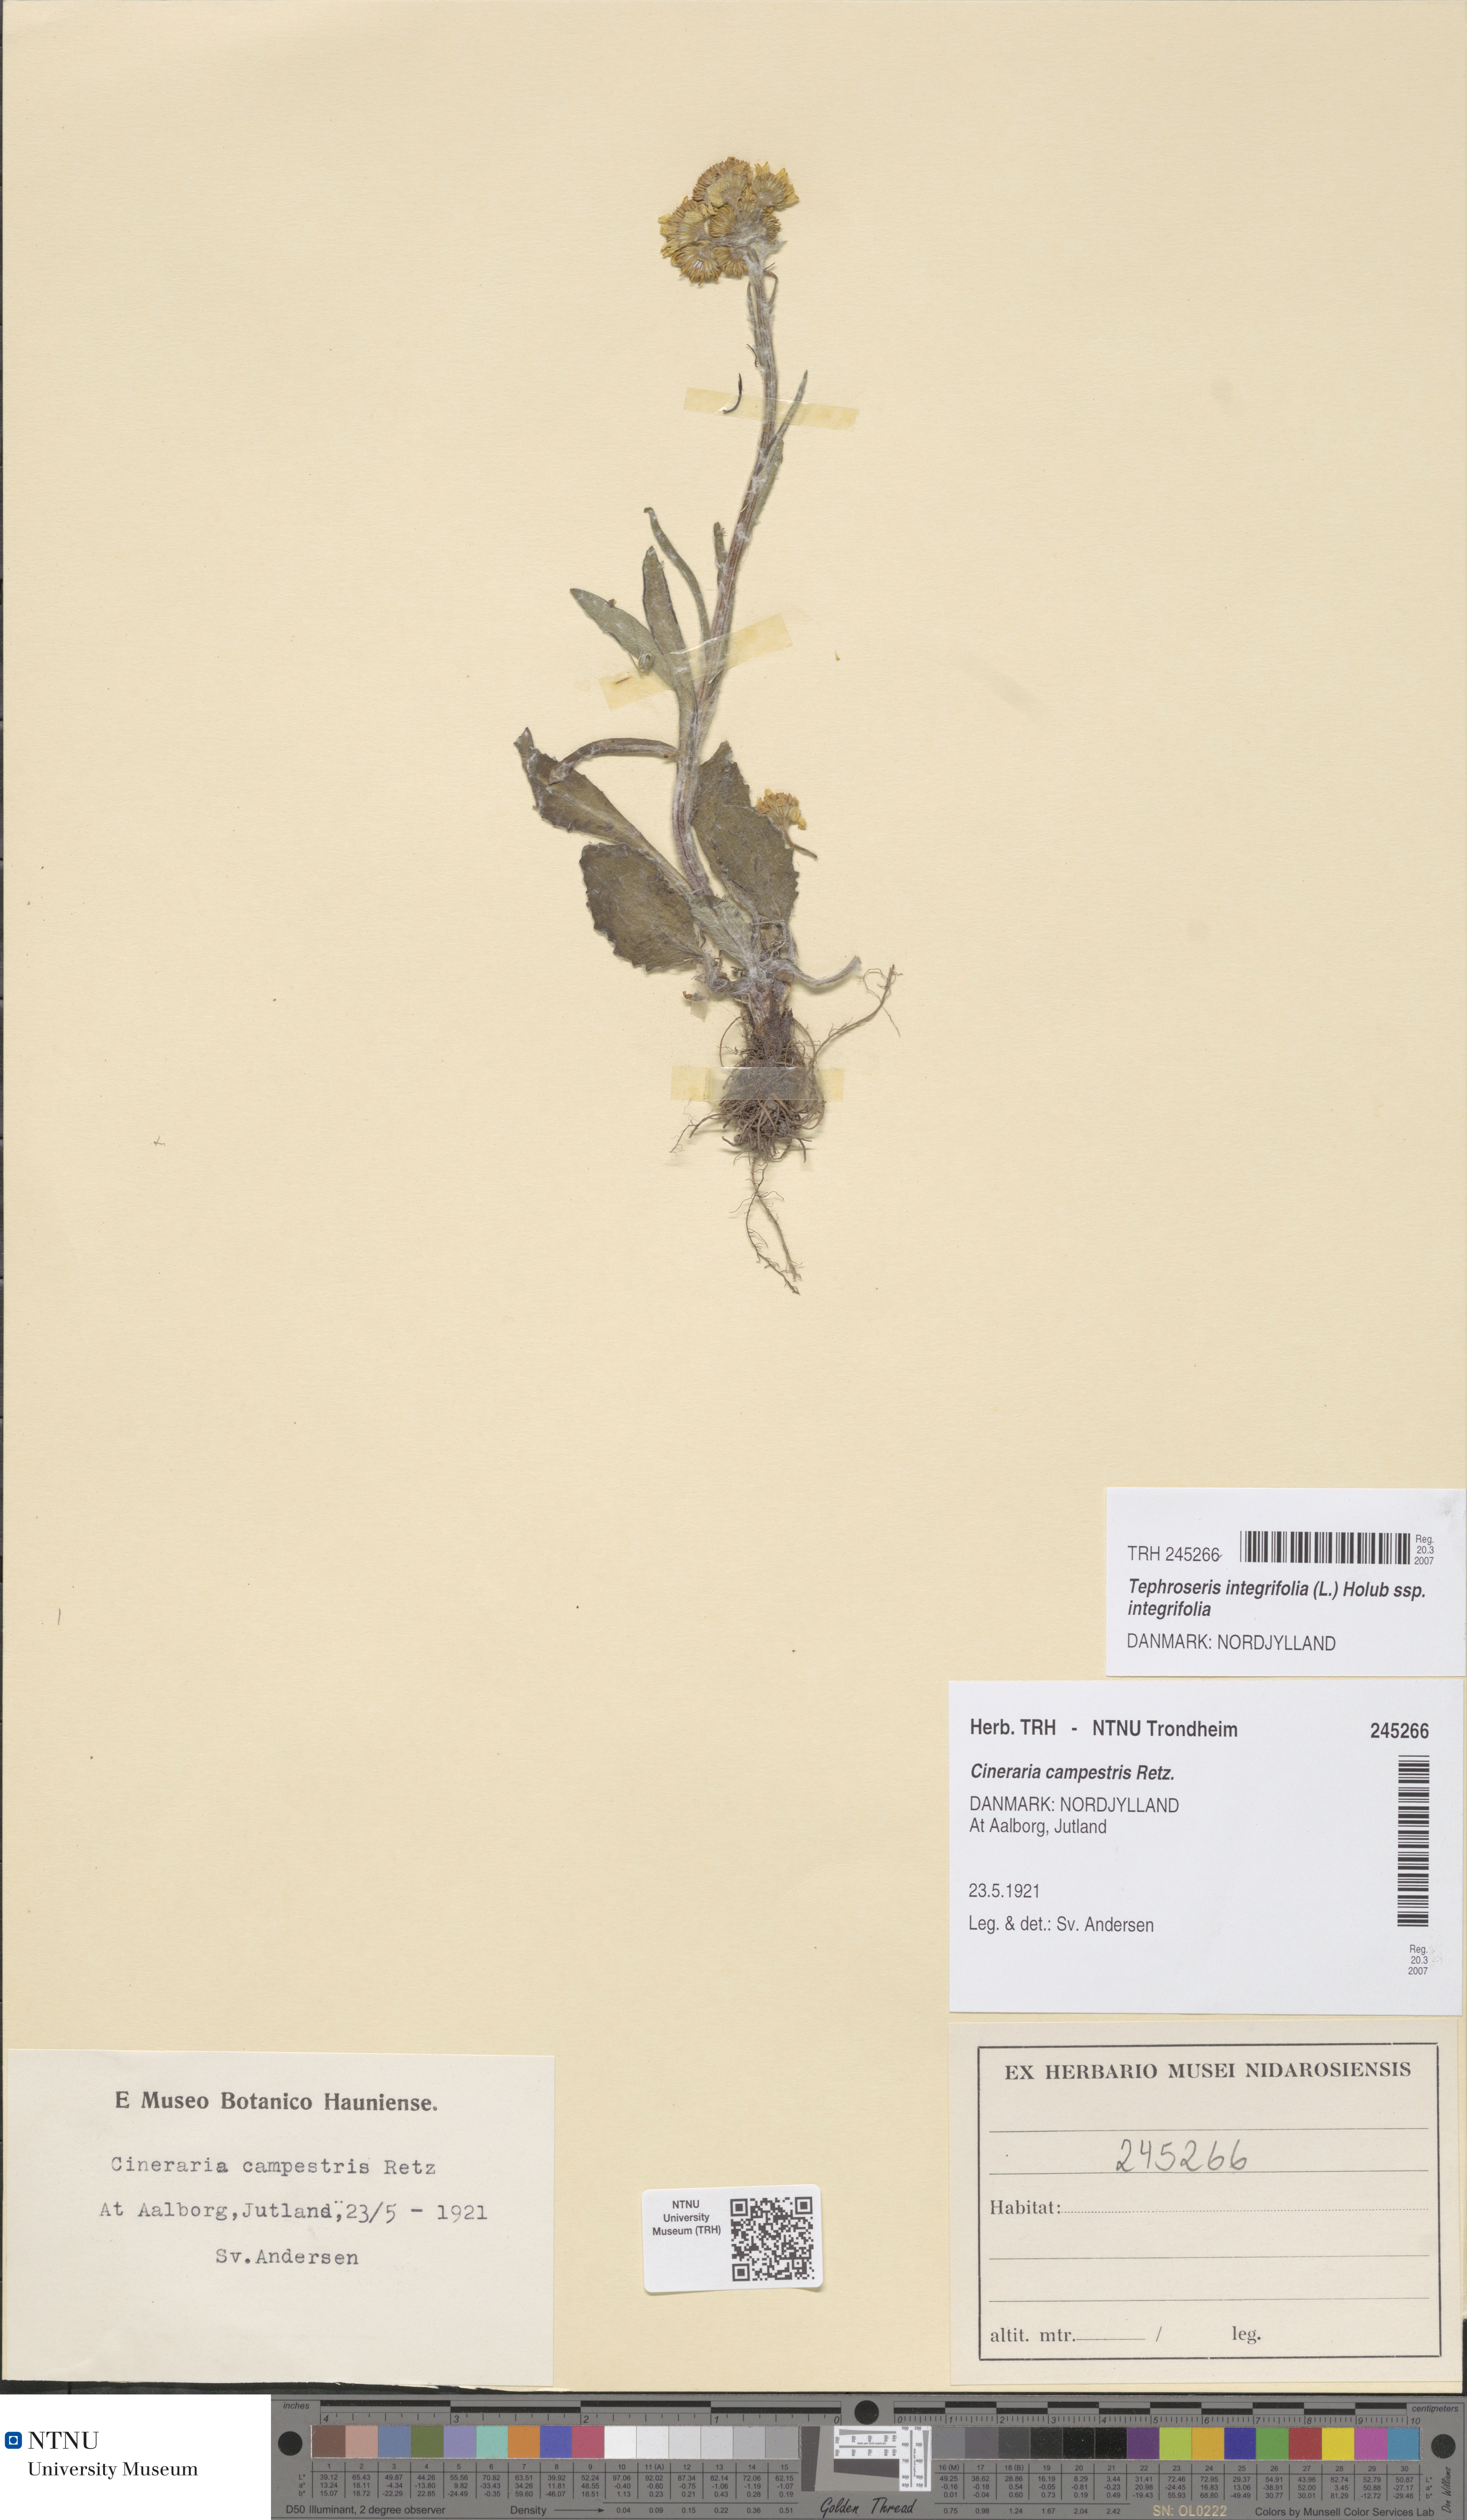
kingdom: Plantae
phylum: Tracheophyta
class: Magnoliopsida
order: Asterales
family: Asteraceae
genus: Tephroseris
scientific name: Tephroseris integrifolia
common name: Field fleawort
